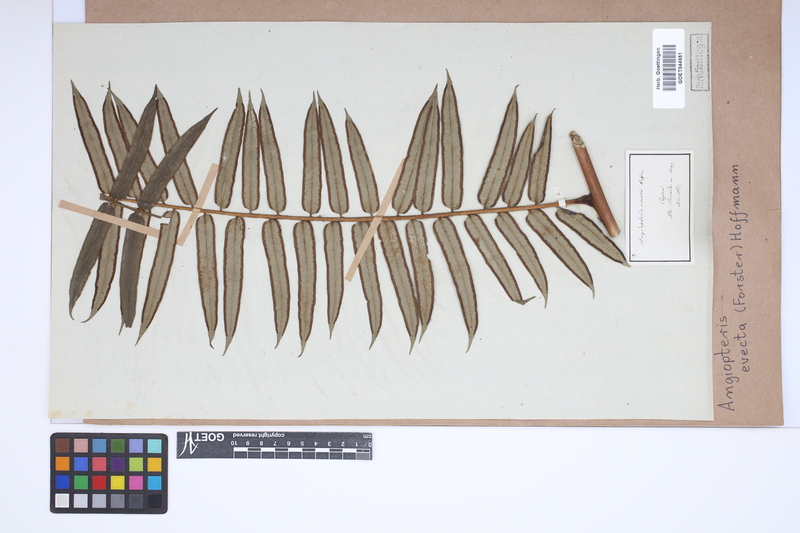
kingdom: Plantae
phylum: Tracheophyta
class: Polypodiopsida
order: Marattiales
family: Marattiaceae
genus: Angiopteris
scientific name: Angiopteris evecta
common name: Mule's-foot fern
